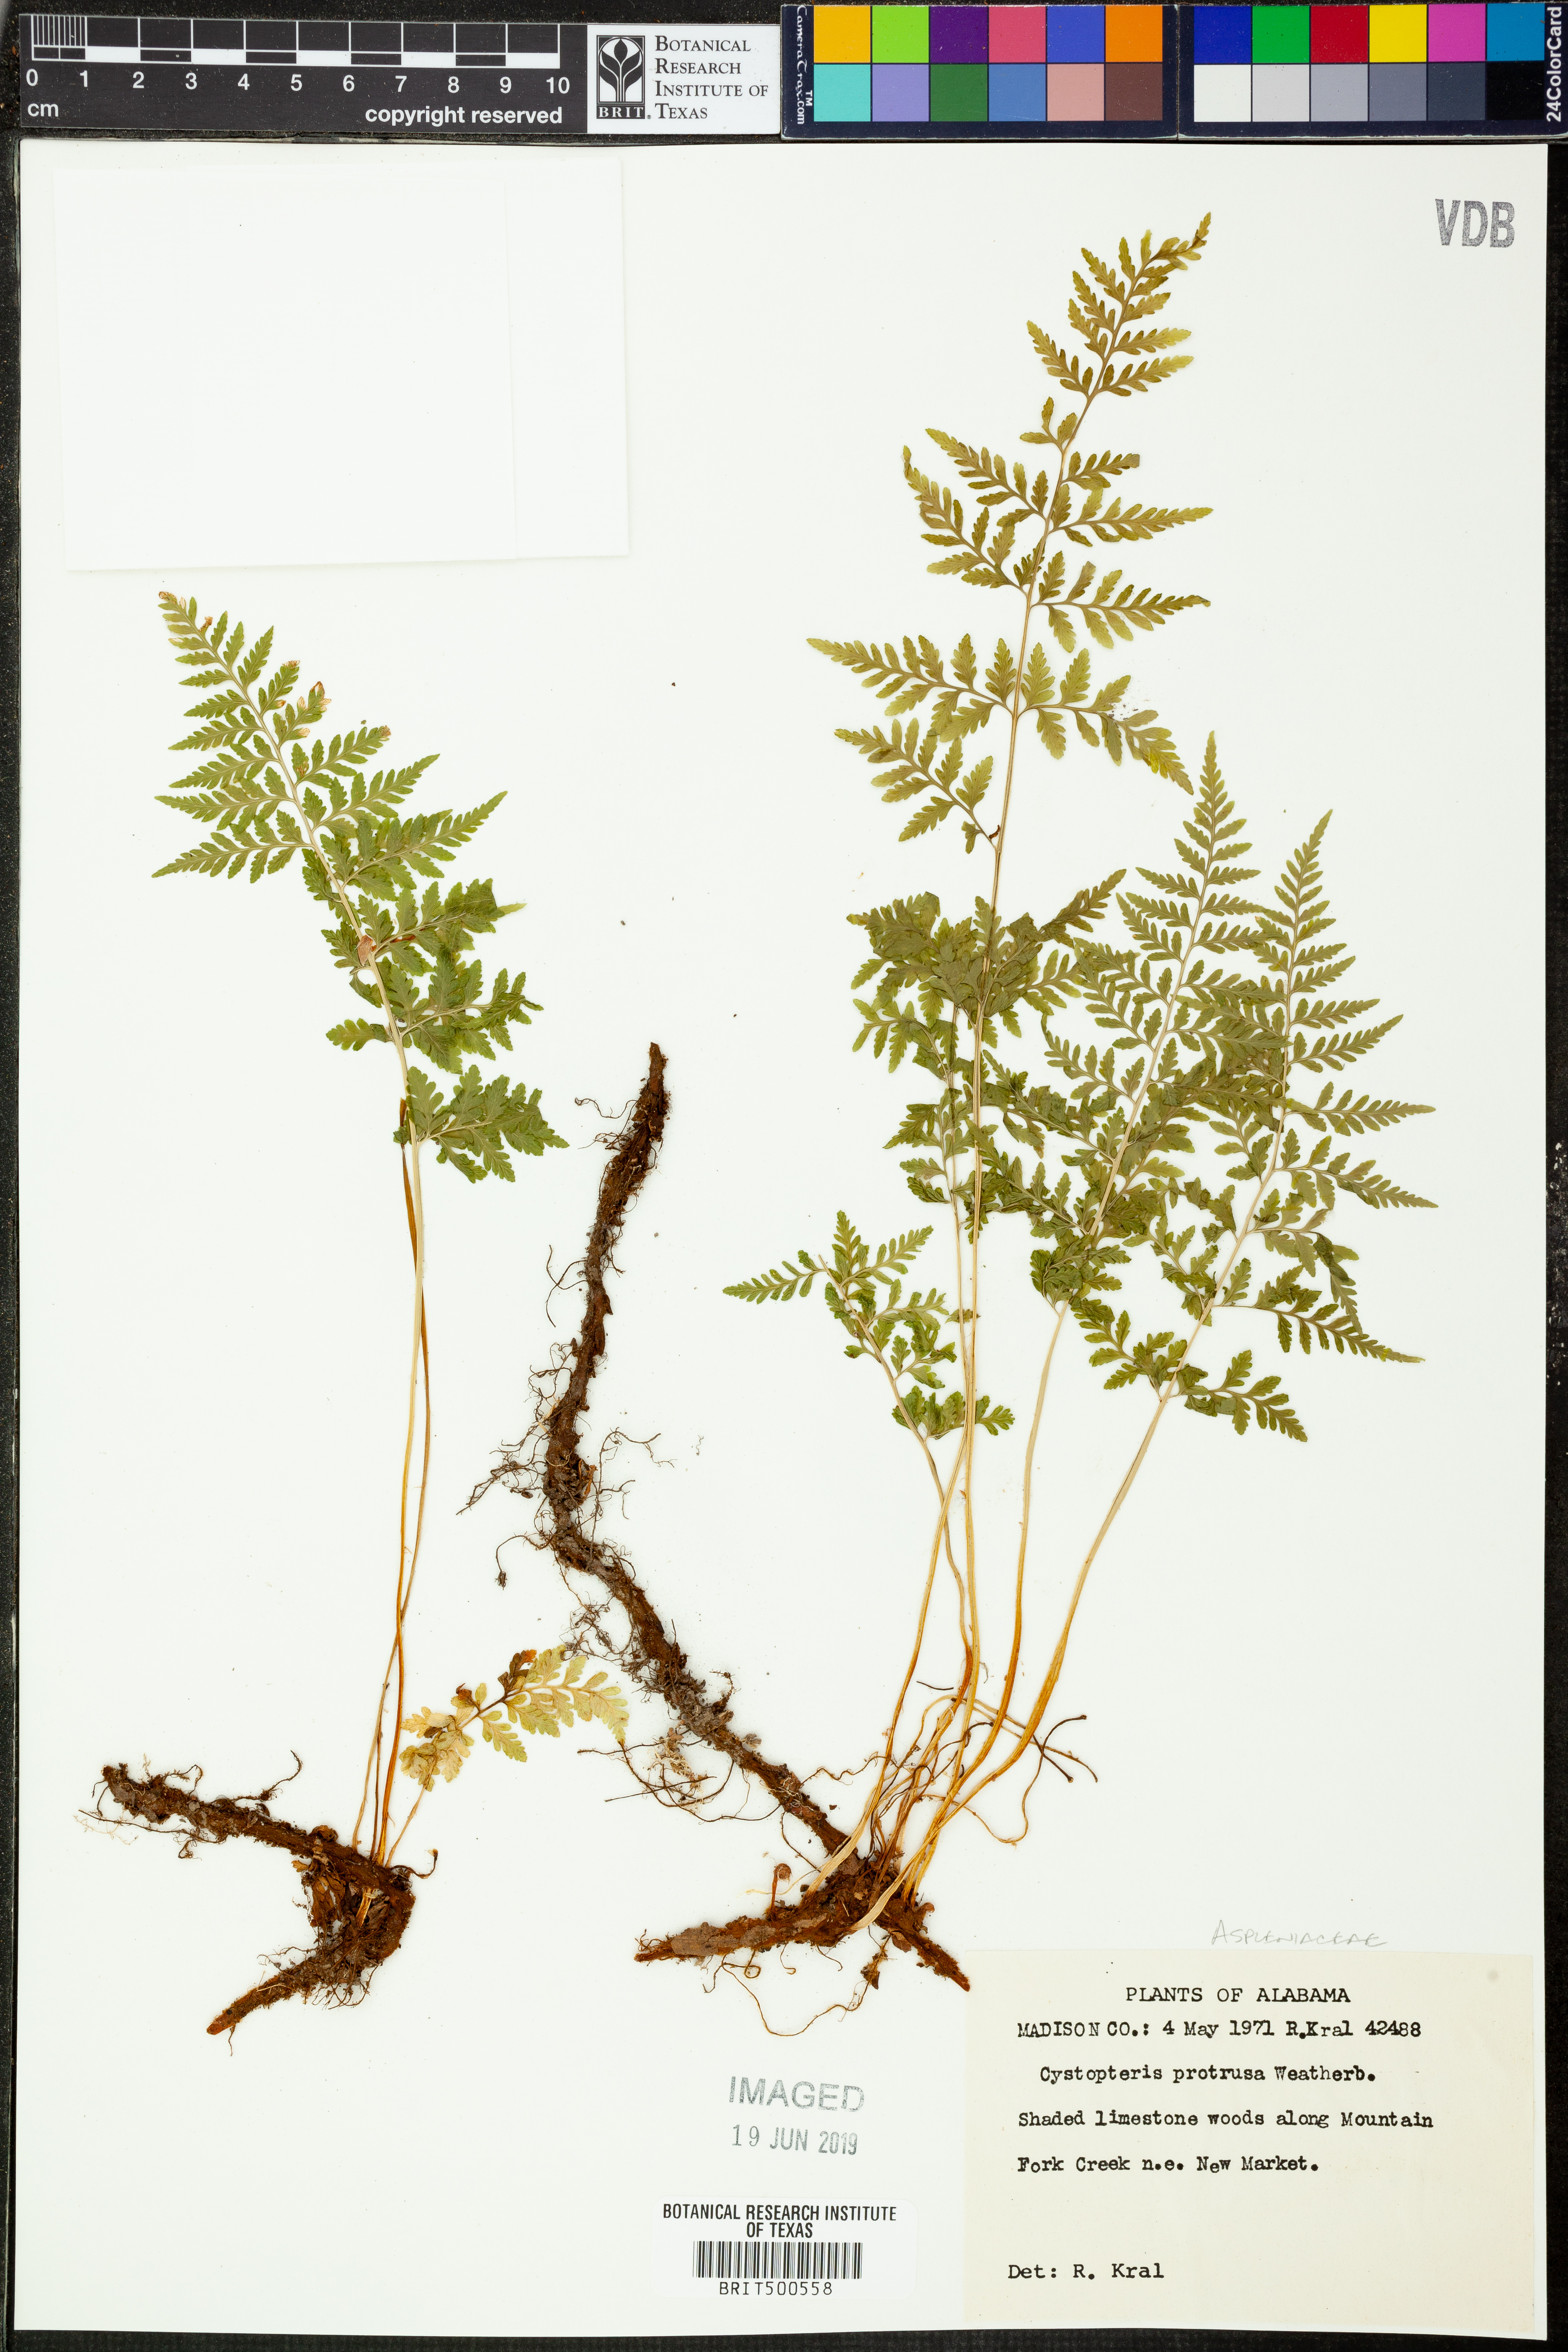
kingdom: Plantae
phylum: Tracheophyta
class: Polypodiopsida
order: Polypodiales
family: Cystopteridaceae
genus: Cystopteris
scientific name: Cystopteris protrusa
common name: Lowland brittle fern
